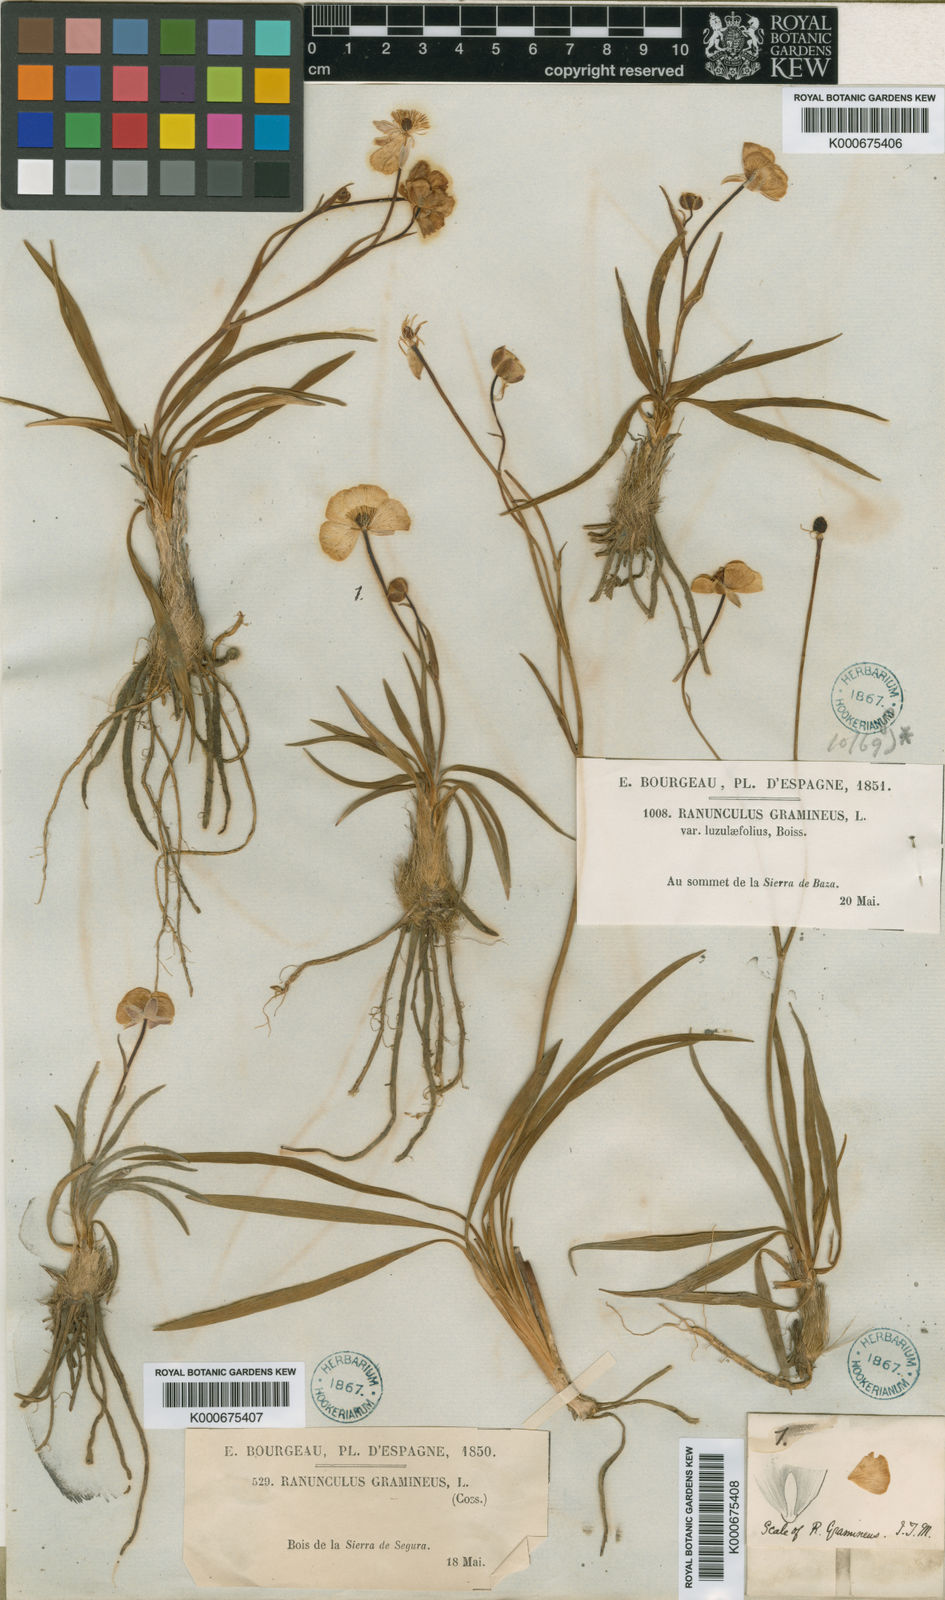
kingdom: Plantae
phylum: Tracheophyta
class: Magnoliopsida
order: Ranunculales
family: Ranunculaceae
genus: Ranunculus
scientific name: Ranunculus gramineus
